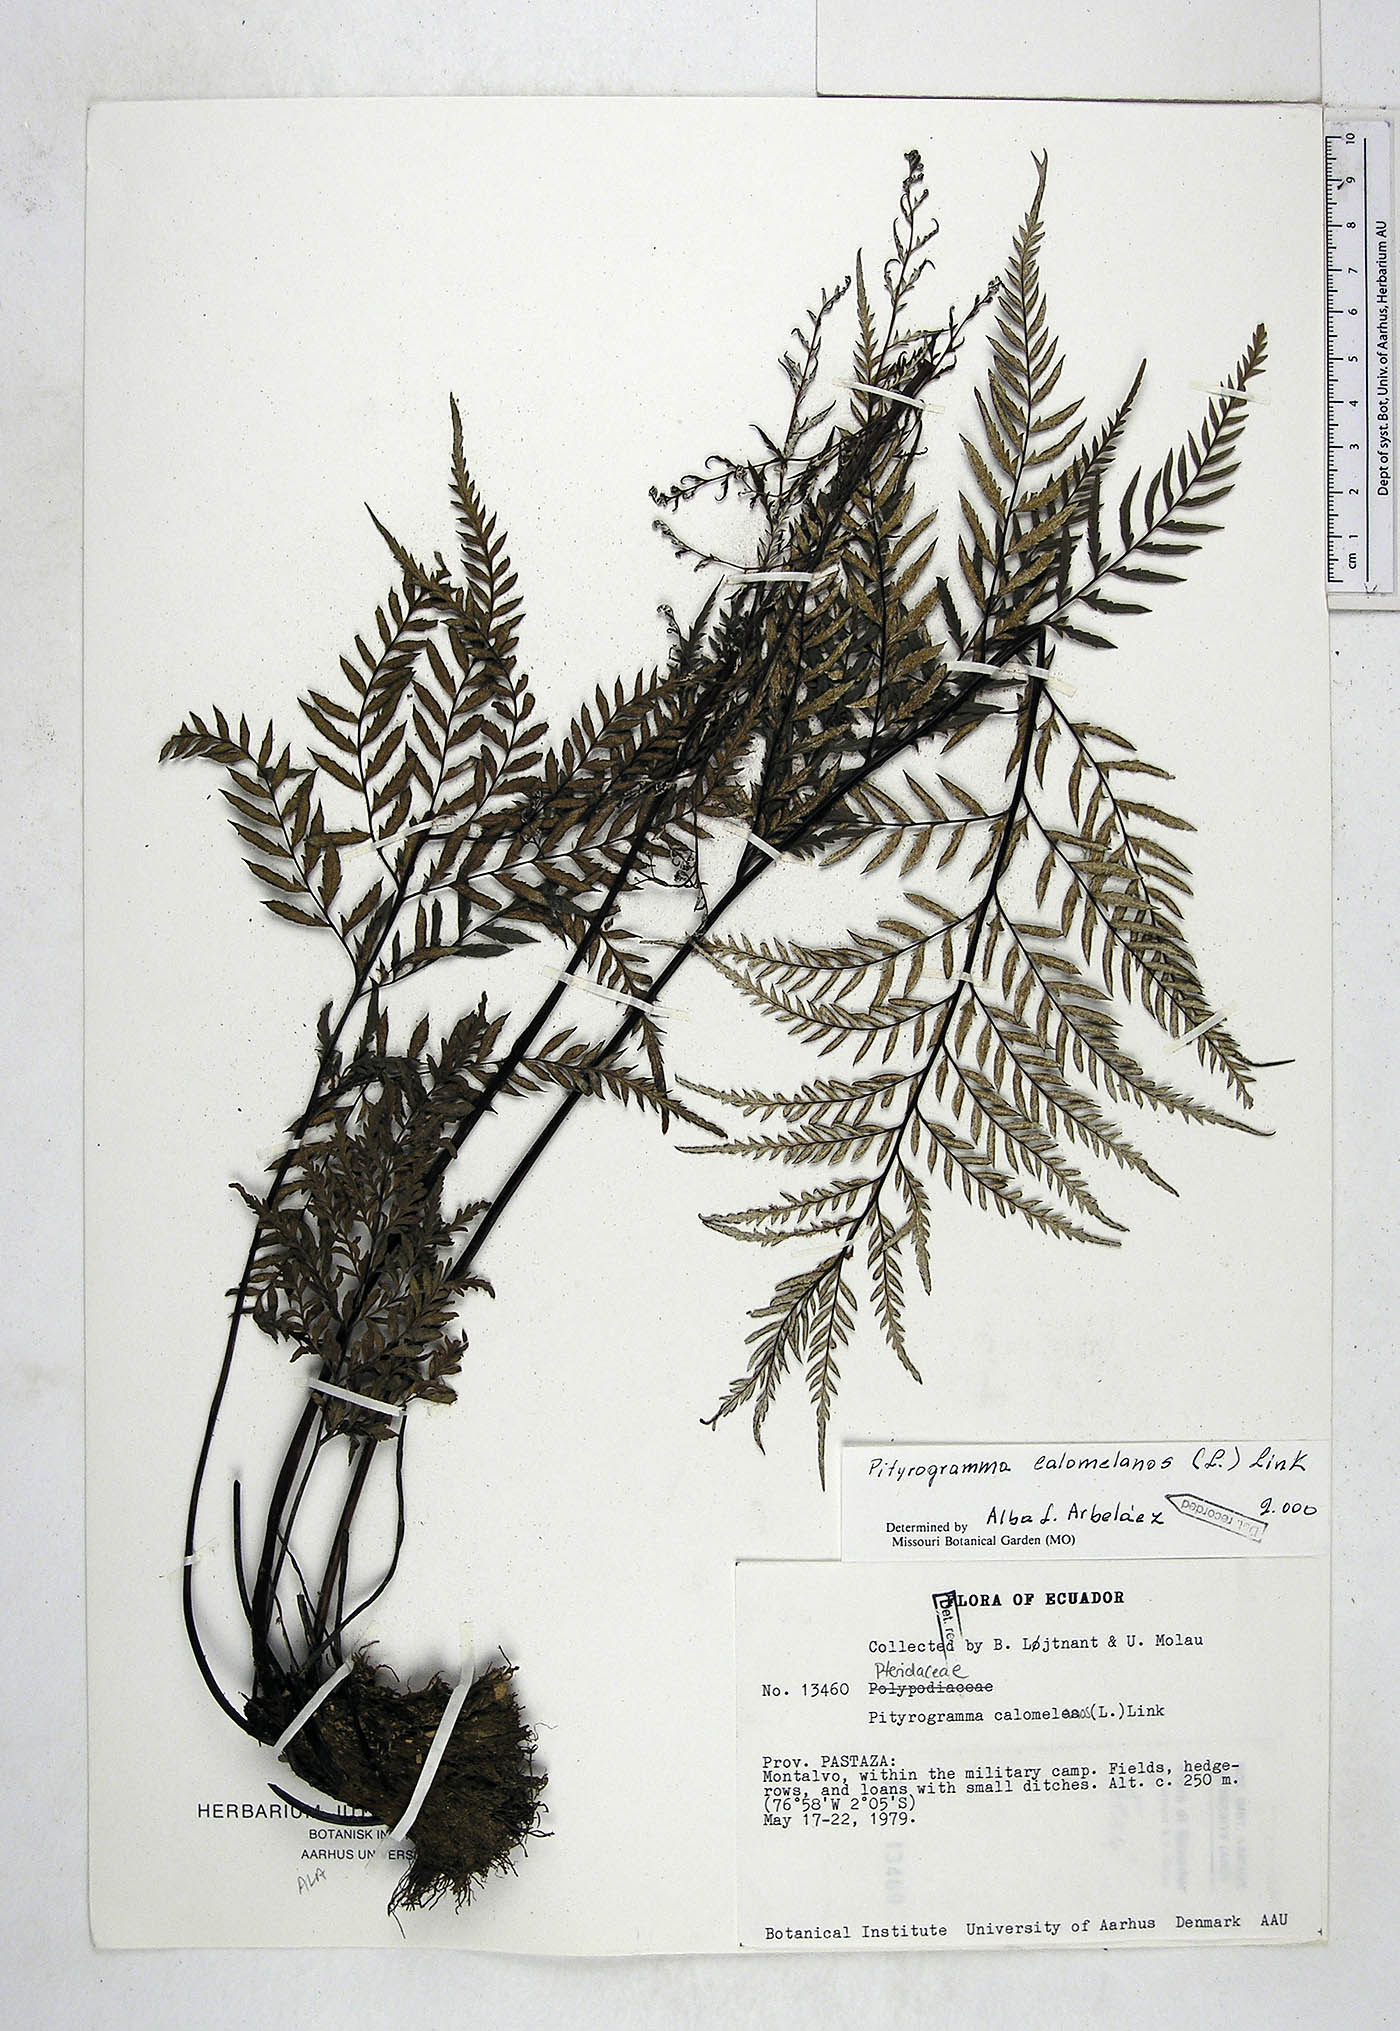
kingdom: Plantae
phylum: Tracheophyta
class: Polypodiopsida
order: Polypodiales
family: Pteridaceae
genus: Pityrogramma
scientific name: Pityrogramma calomelanos
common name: Dixie silverback fern
